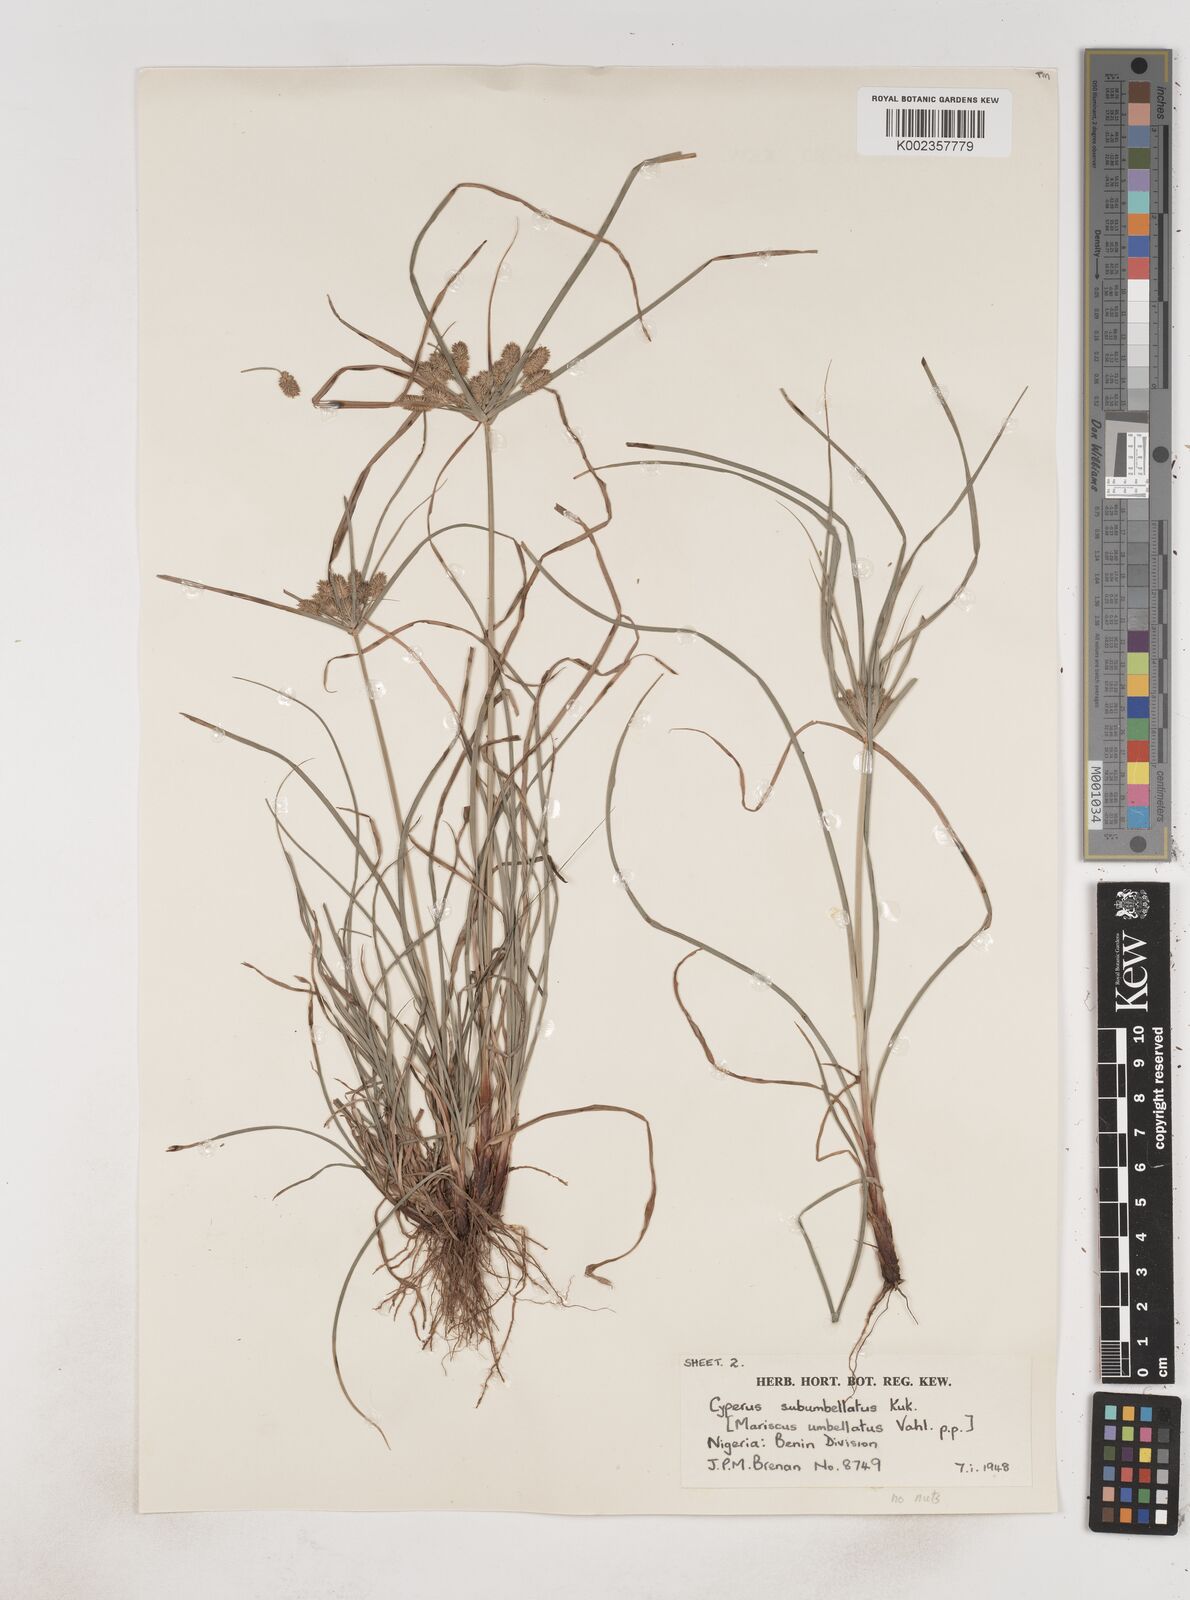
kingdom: Plantae
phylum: Tracheophyta
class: Liliopsida
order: Poales
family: Cyperaceae
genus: Cyperus
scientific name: Cyperus sublimis
